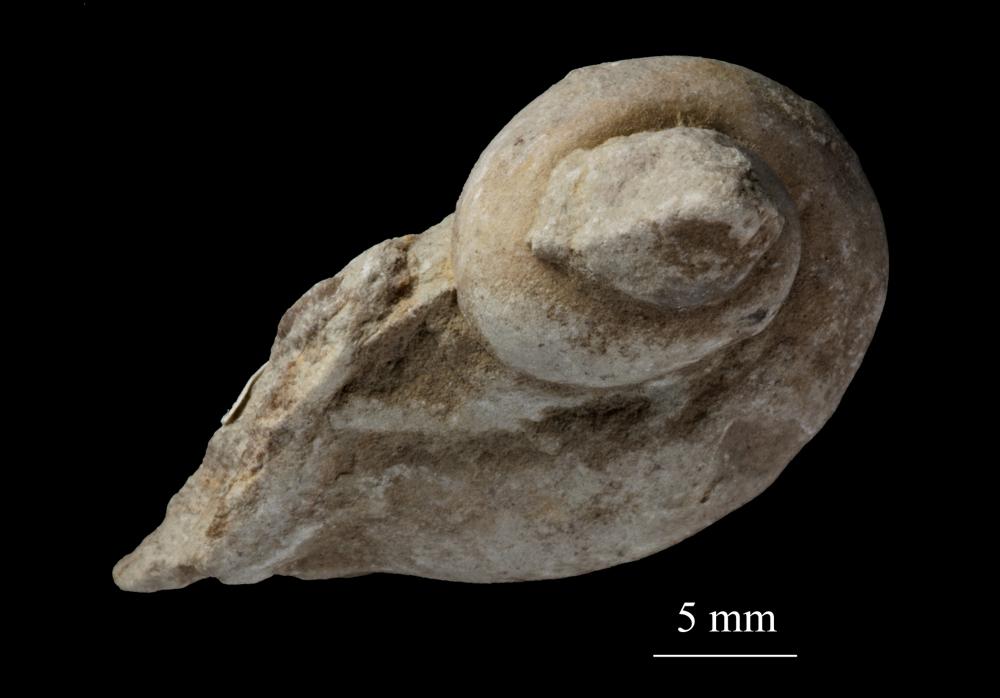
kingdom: Animalia
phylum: Mollusca
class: Gastropoda
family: Lophospiridae
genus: Loxoplocus
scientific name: Loxoplocus Worthenia vermetus
